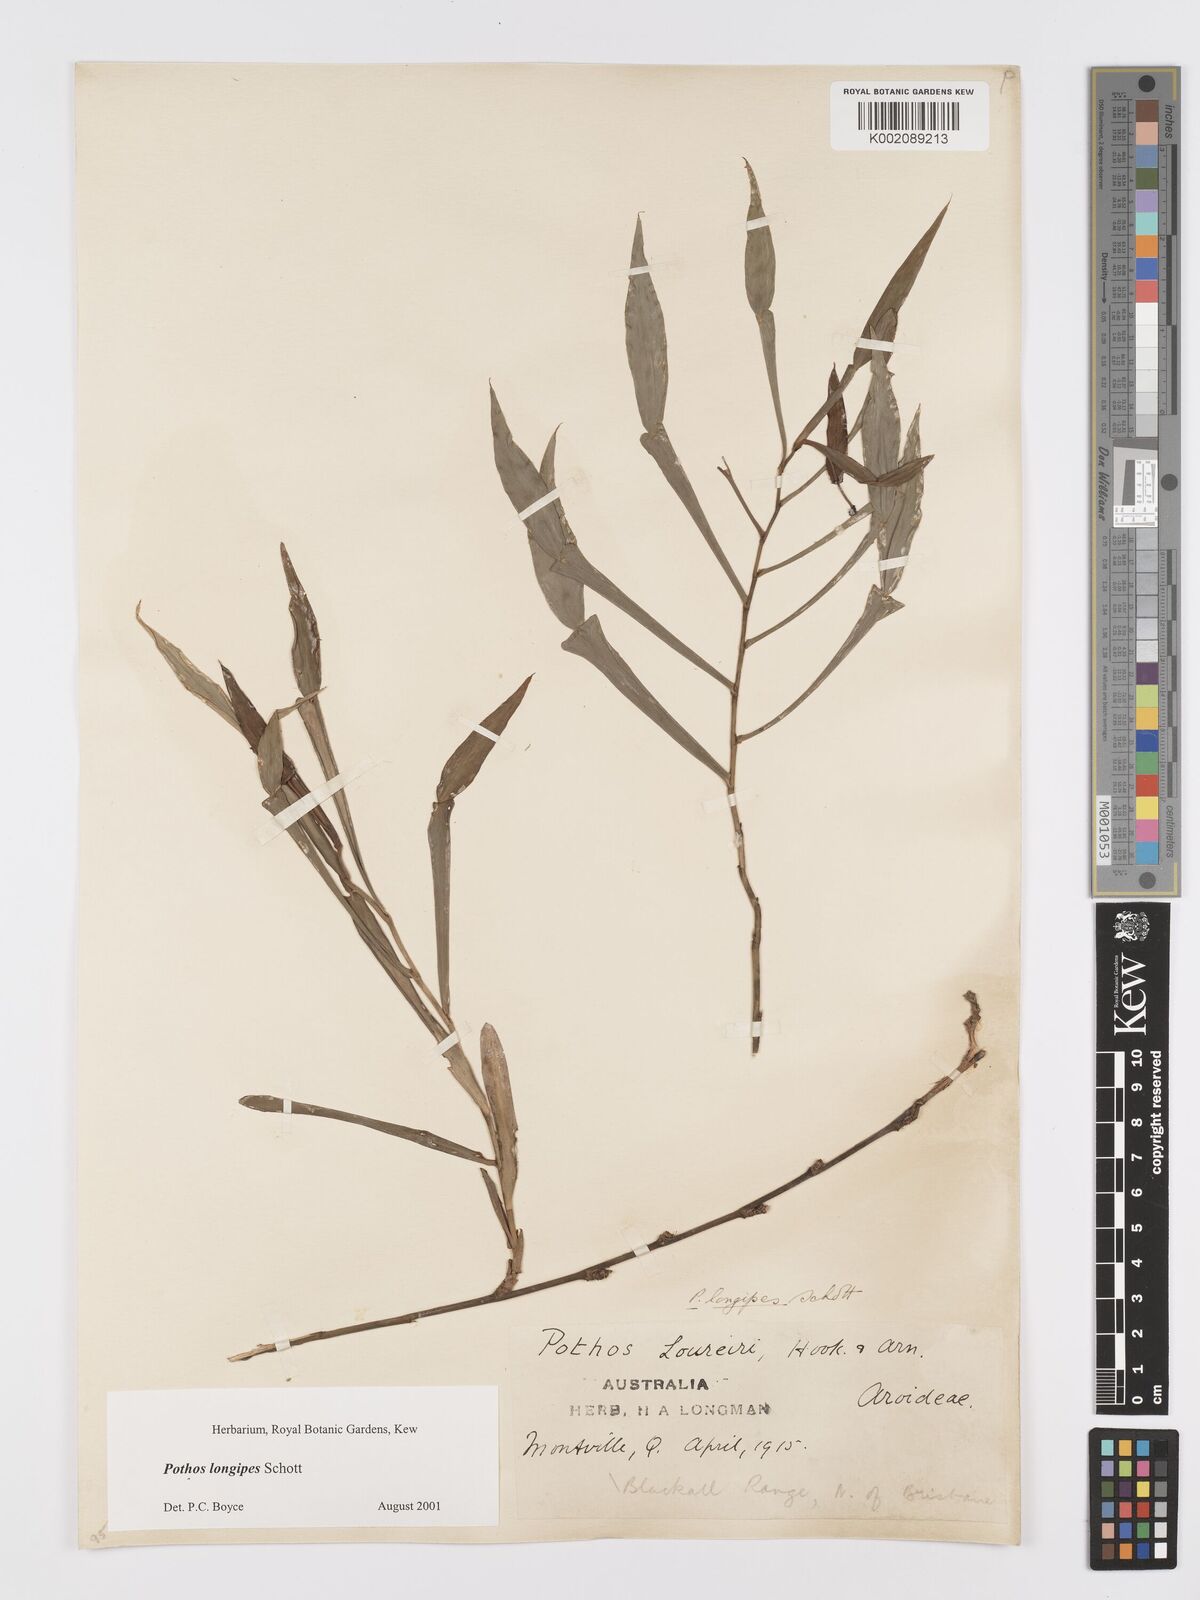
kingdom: Plantae
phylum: Tracheophyta
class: Liliopsida
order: Alismatales
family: Araceae
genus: Pothos
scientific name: Pothos longipes
